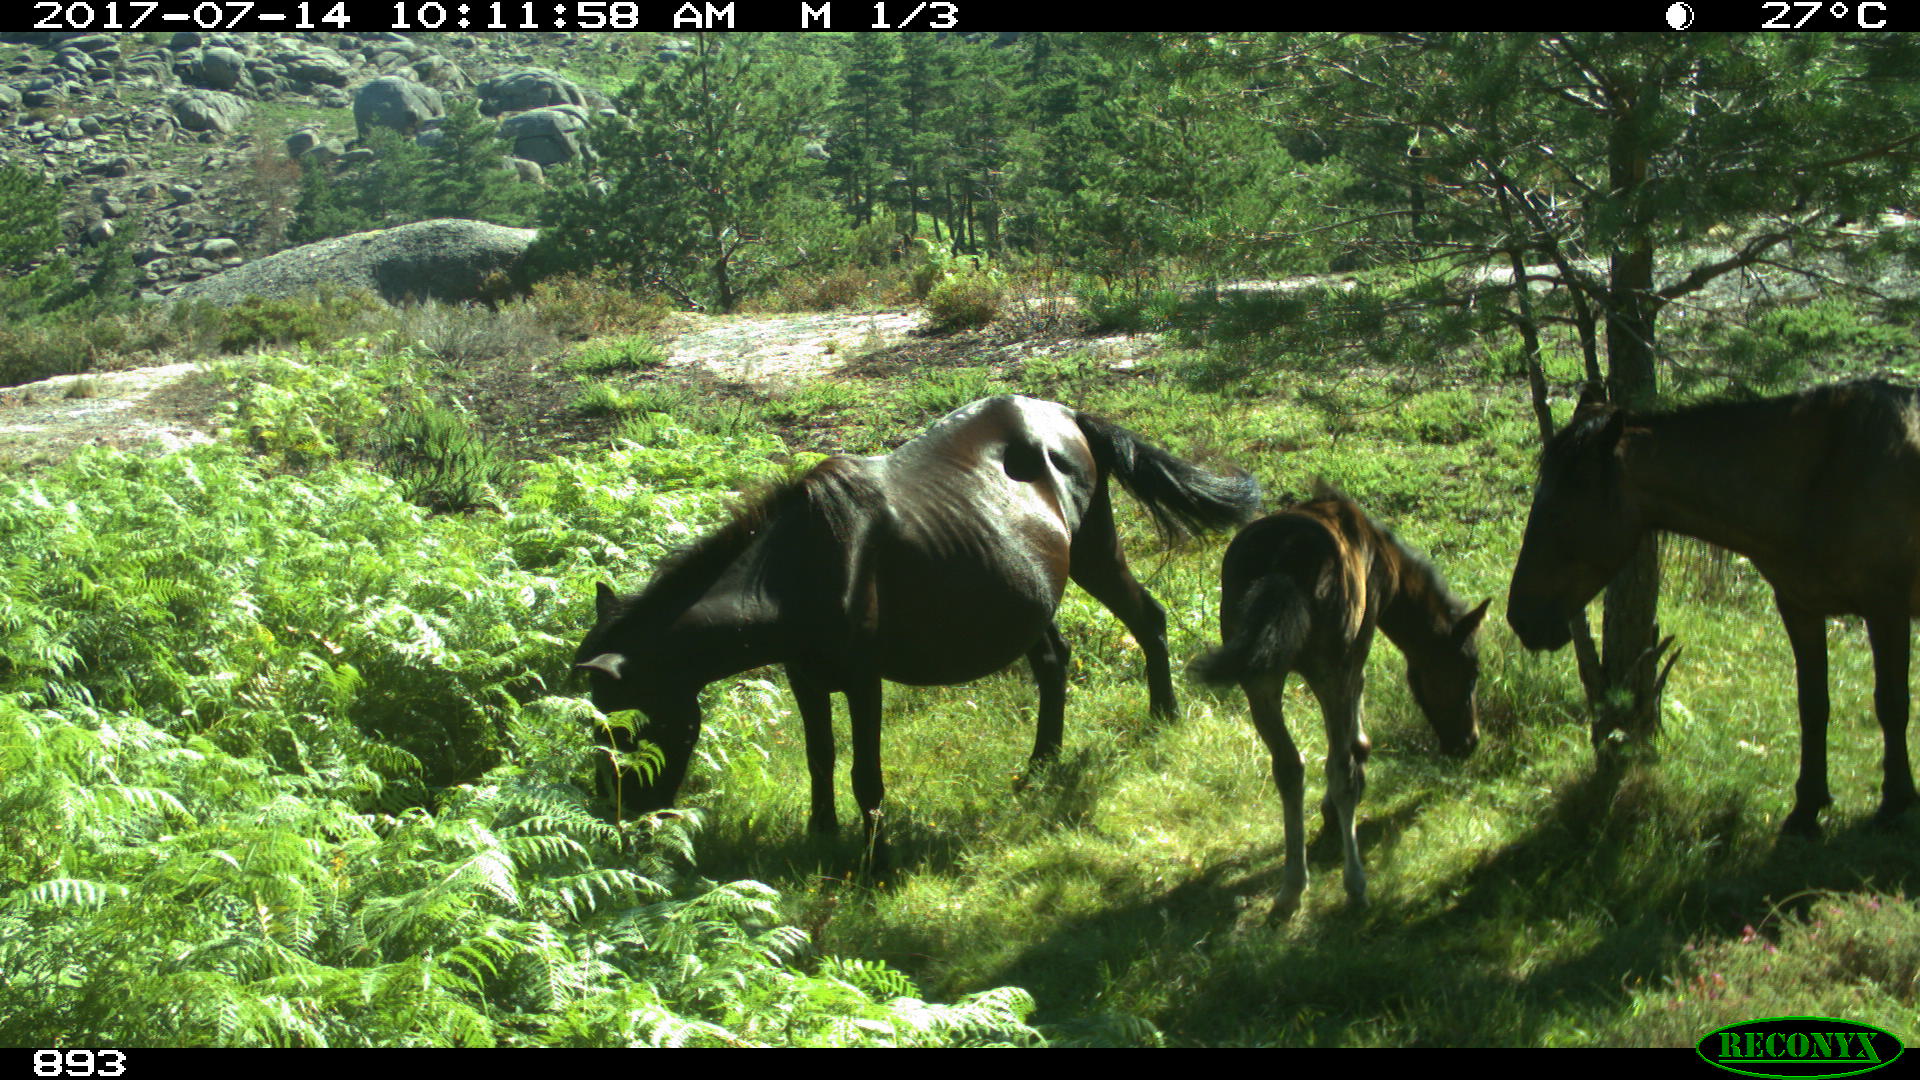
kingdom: Animalia
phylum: Chordata
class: Mammalia
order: Perissodactyla
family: Equidae
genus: Equus
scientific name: Equus caballus
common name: Horse
